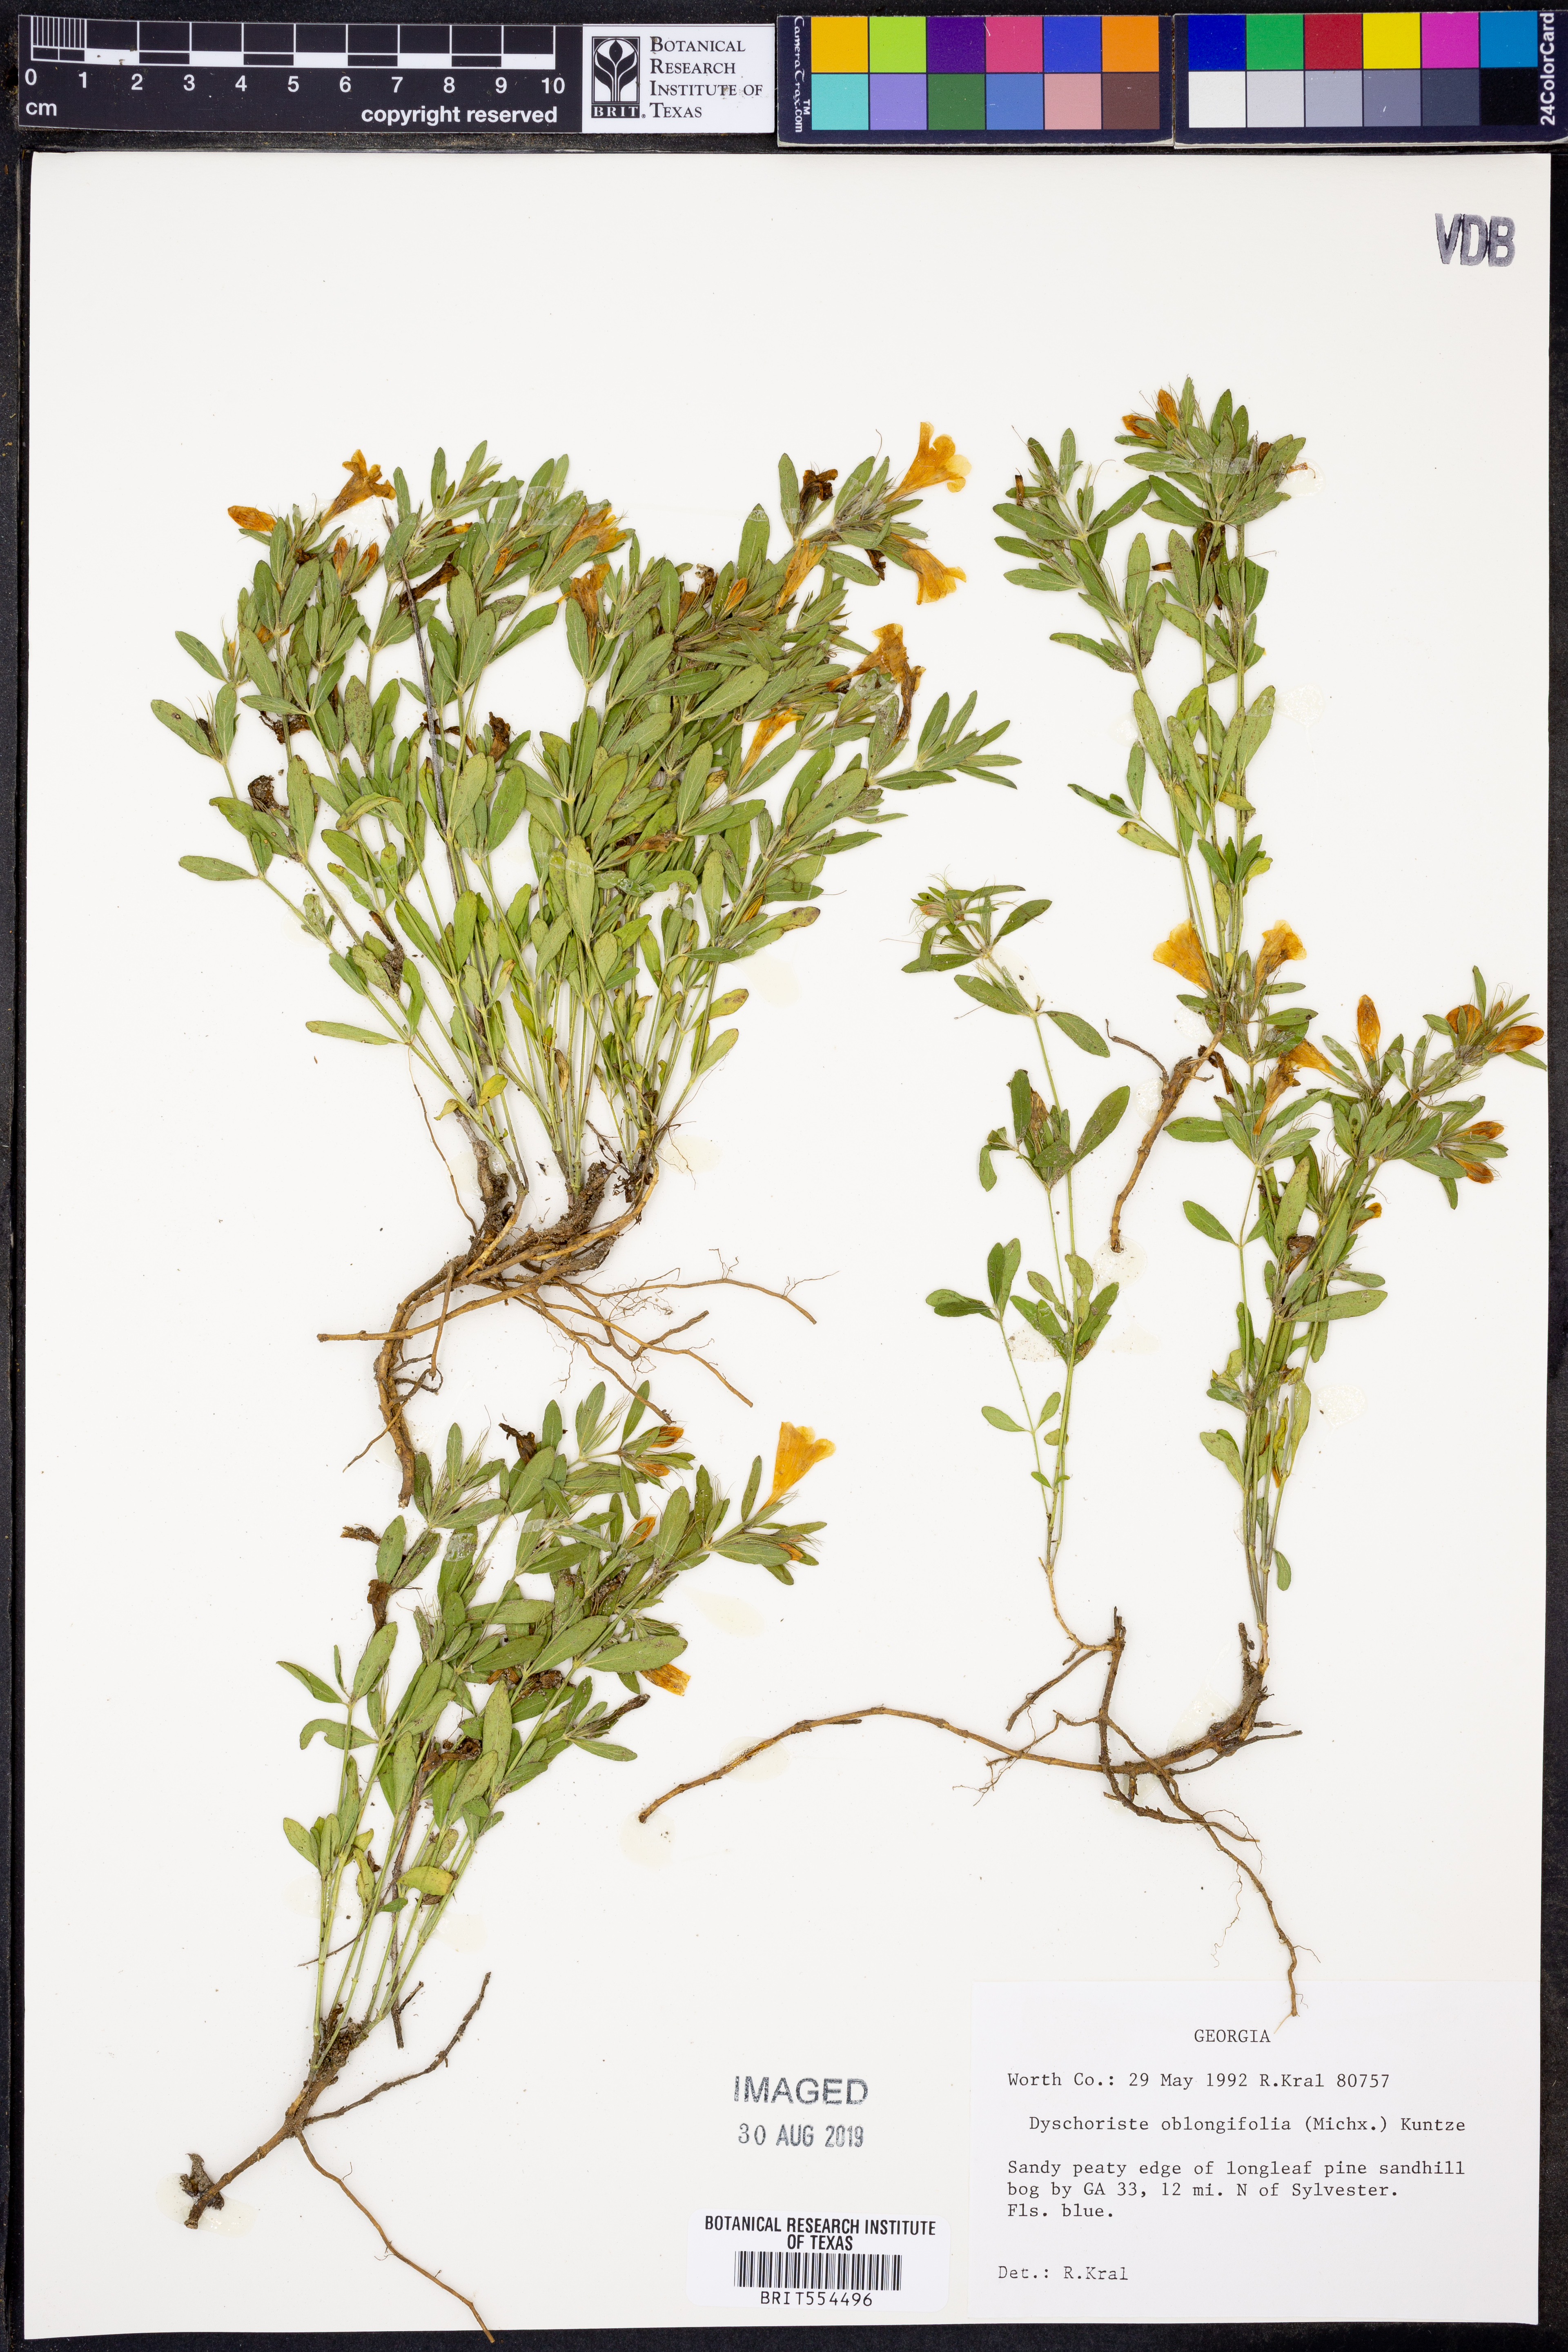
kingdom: Plantae
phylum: Tracheophyta
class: Magnoliopsida
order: Lamiales
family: Acanthaceae
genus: Dyschoriste
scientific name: Dyschoriste oblongifolia
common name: Blue twinflower
